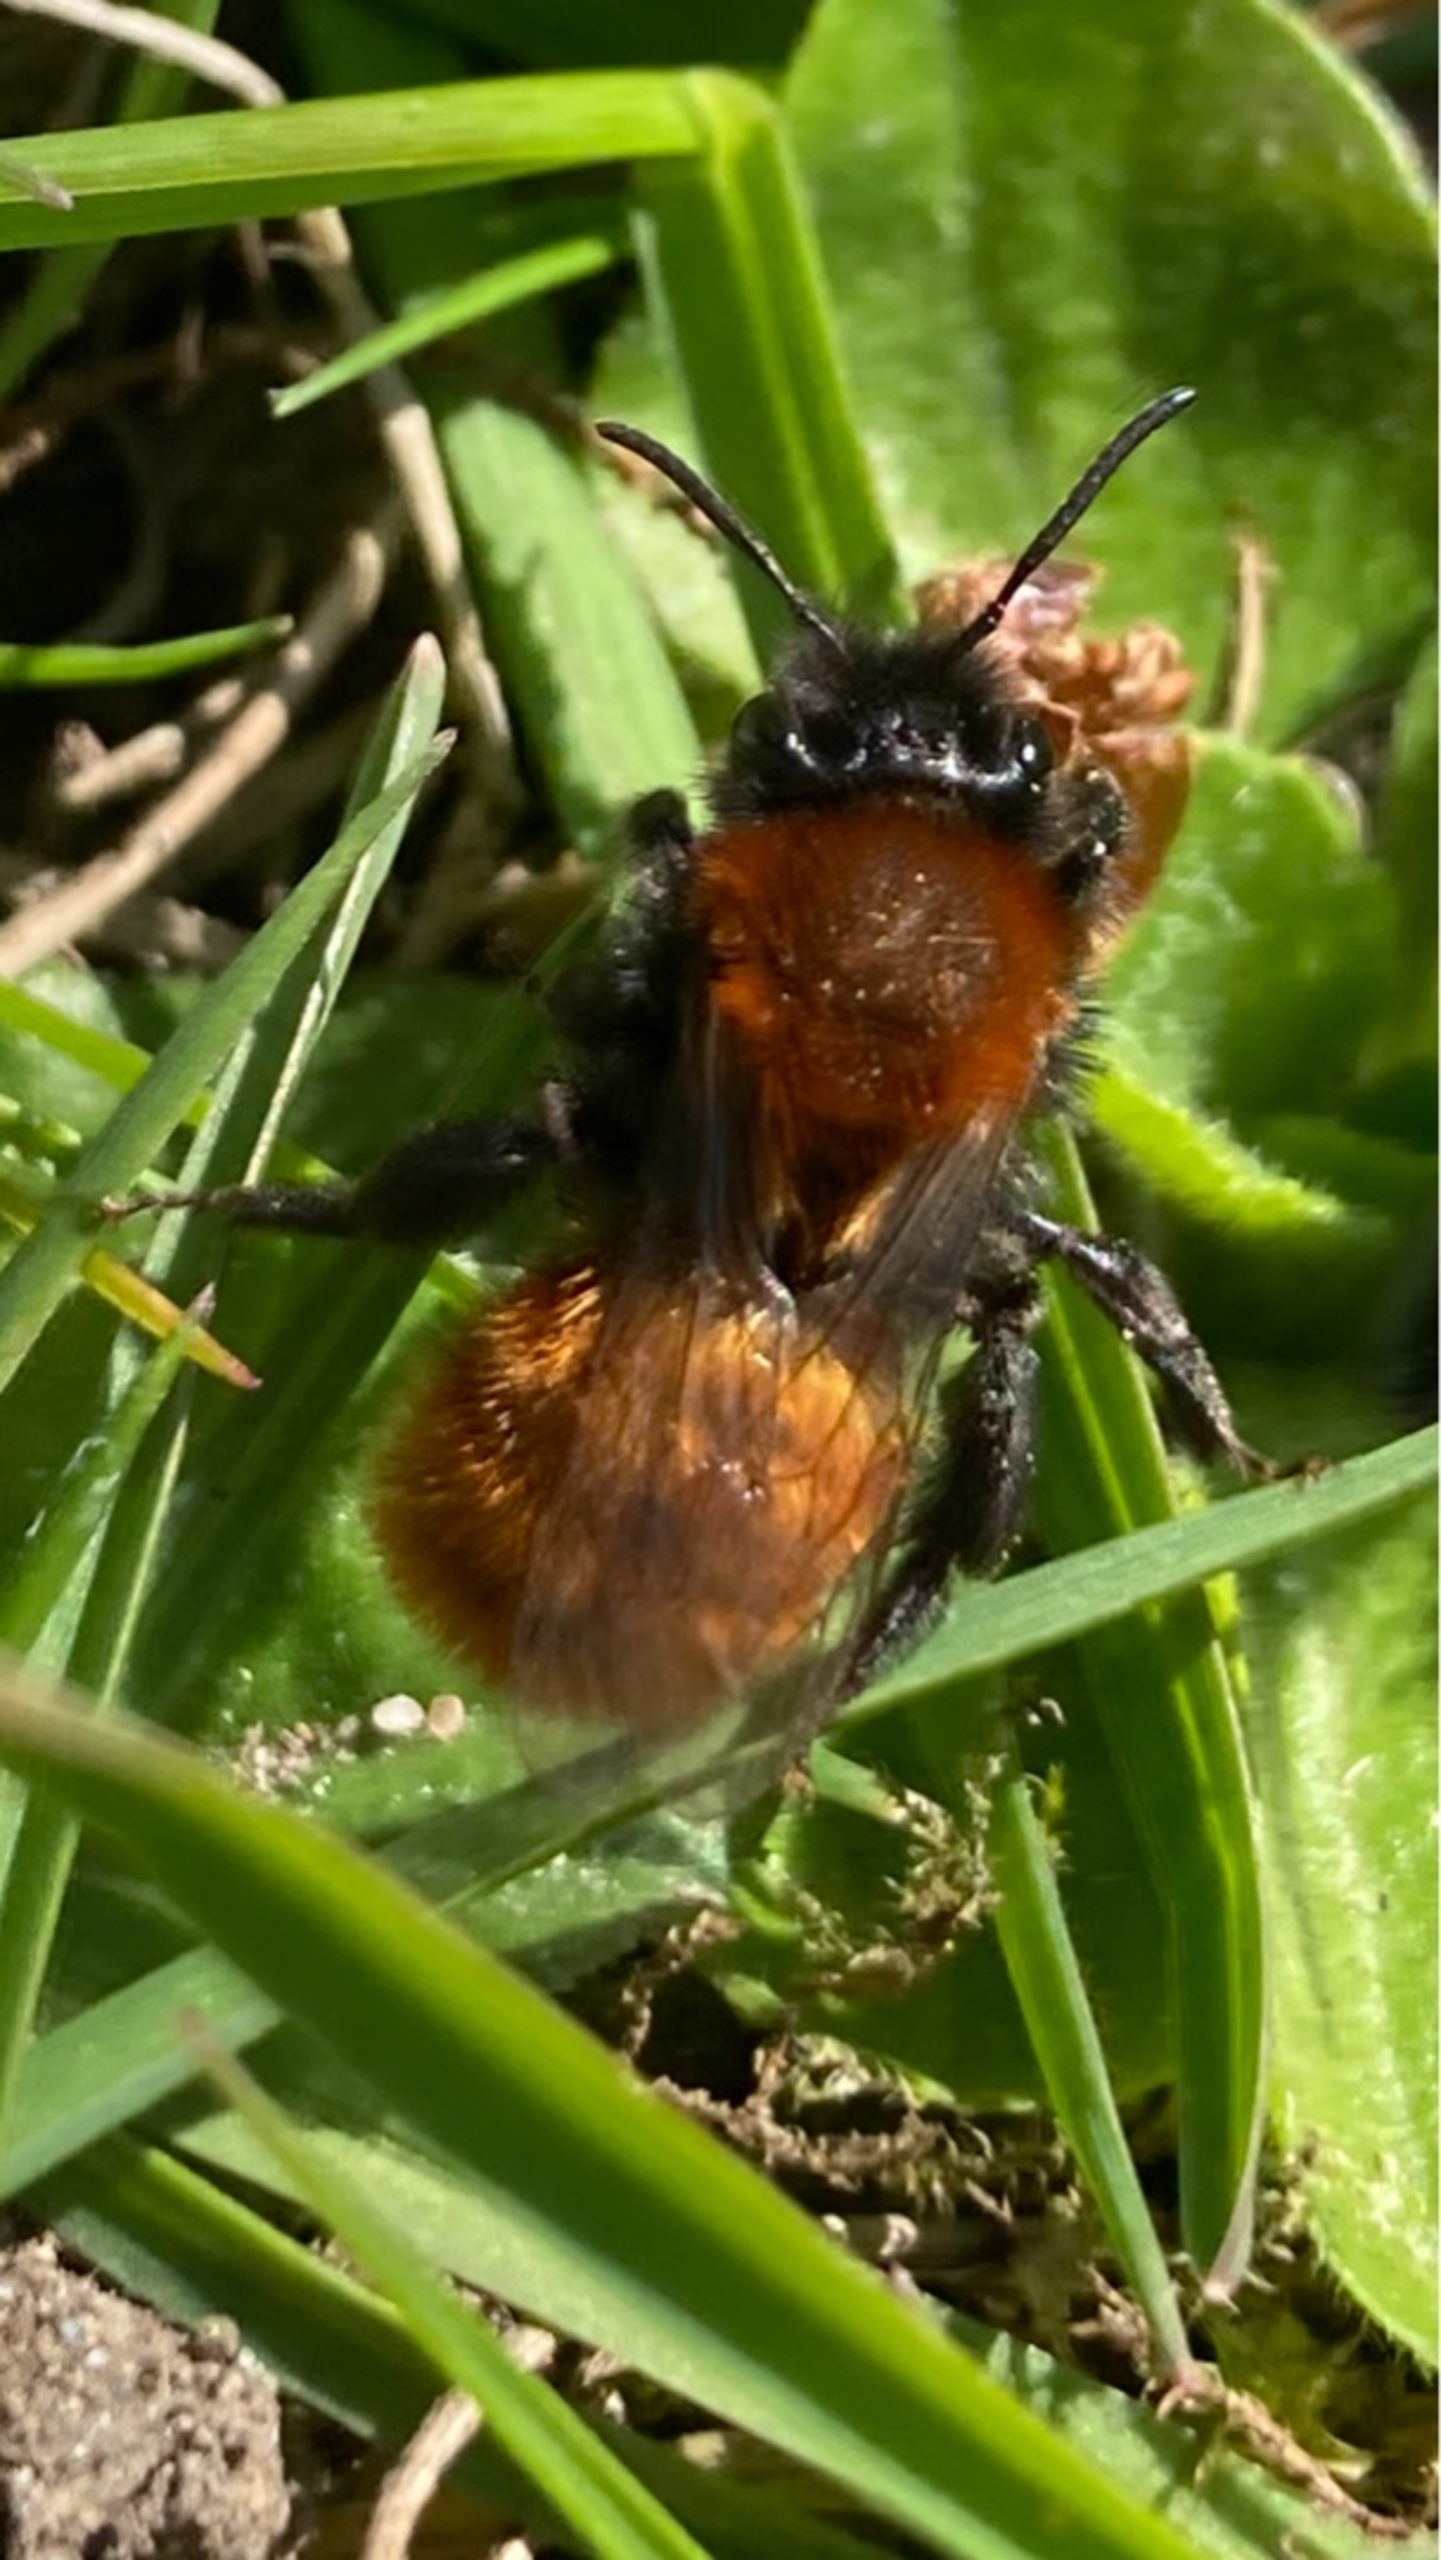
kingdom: Animalia
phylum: Arthropoda
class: Insecta
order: Hymenoptera
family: Andrenidae
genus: Andrena
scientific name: Andrena fulva
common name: Rødpelset jordbi
